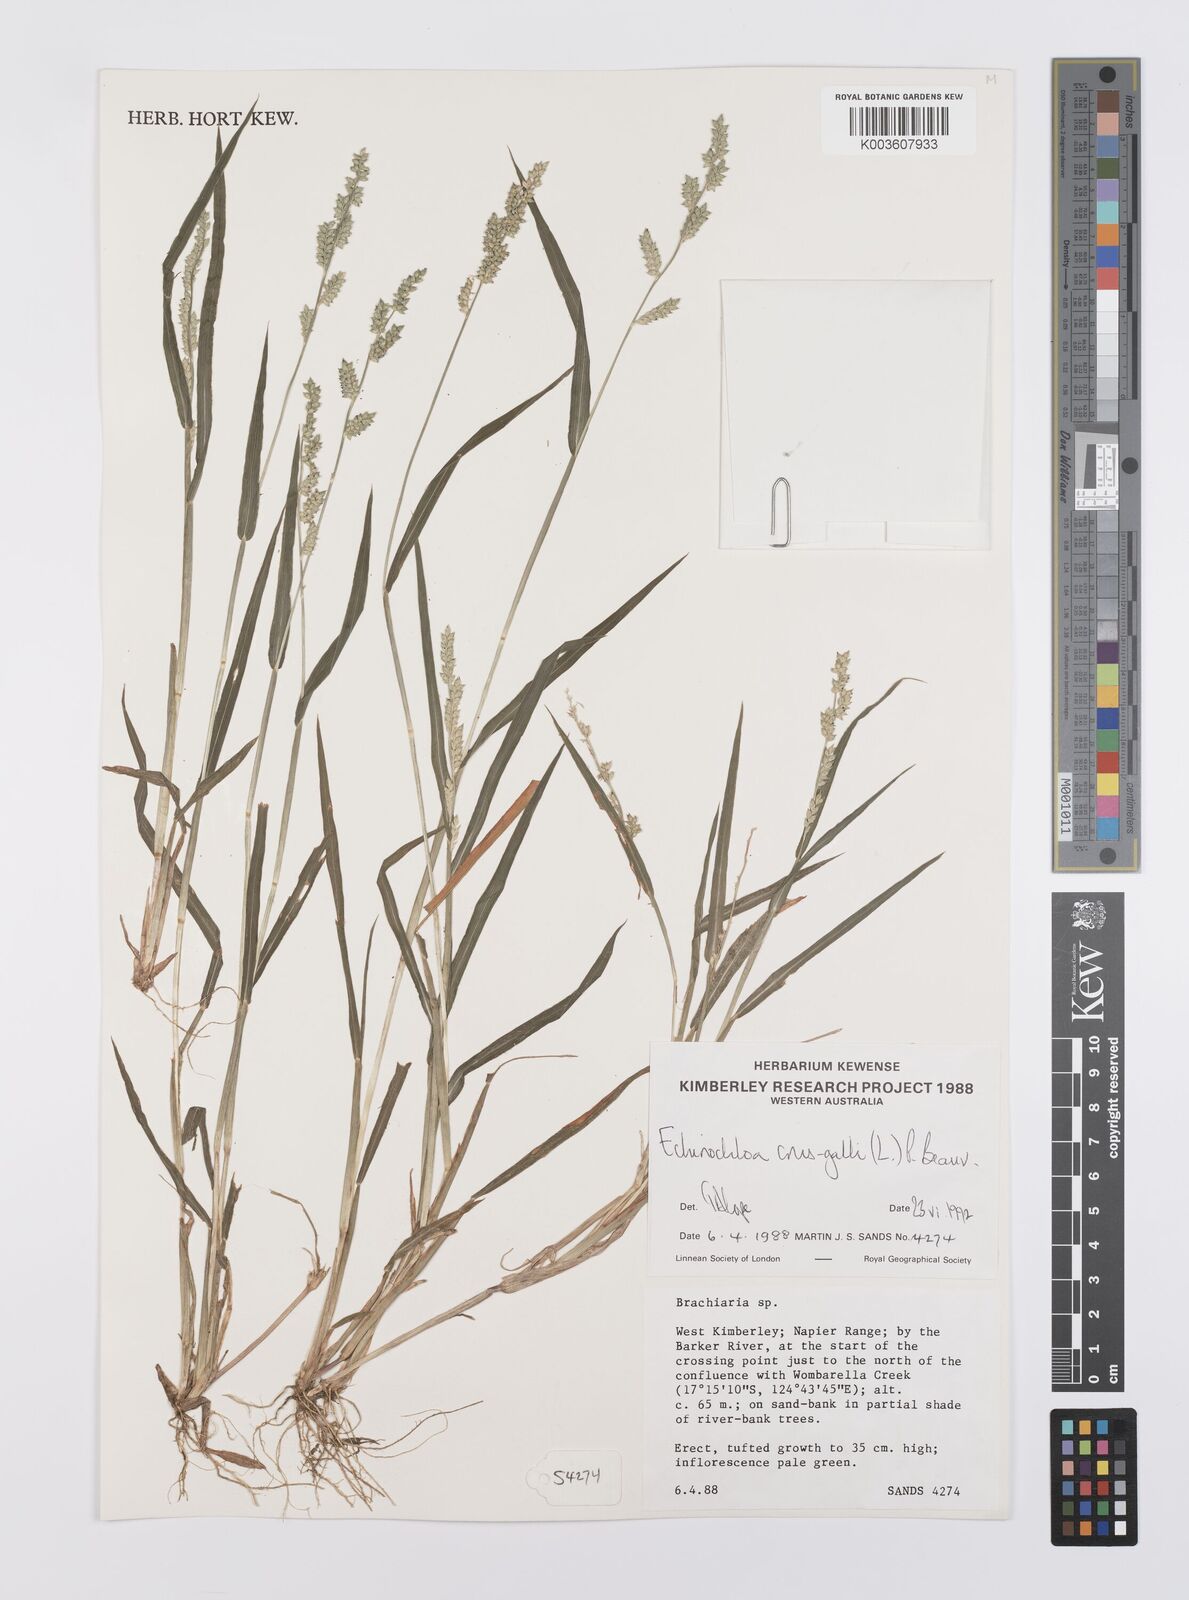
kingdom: Plantae
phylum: Tracheophyta
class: Liliopsida
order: Poales
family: Poaceae
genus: Echinochloa
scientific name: Echinochloa crus-galli
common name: Cockspur
